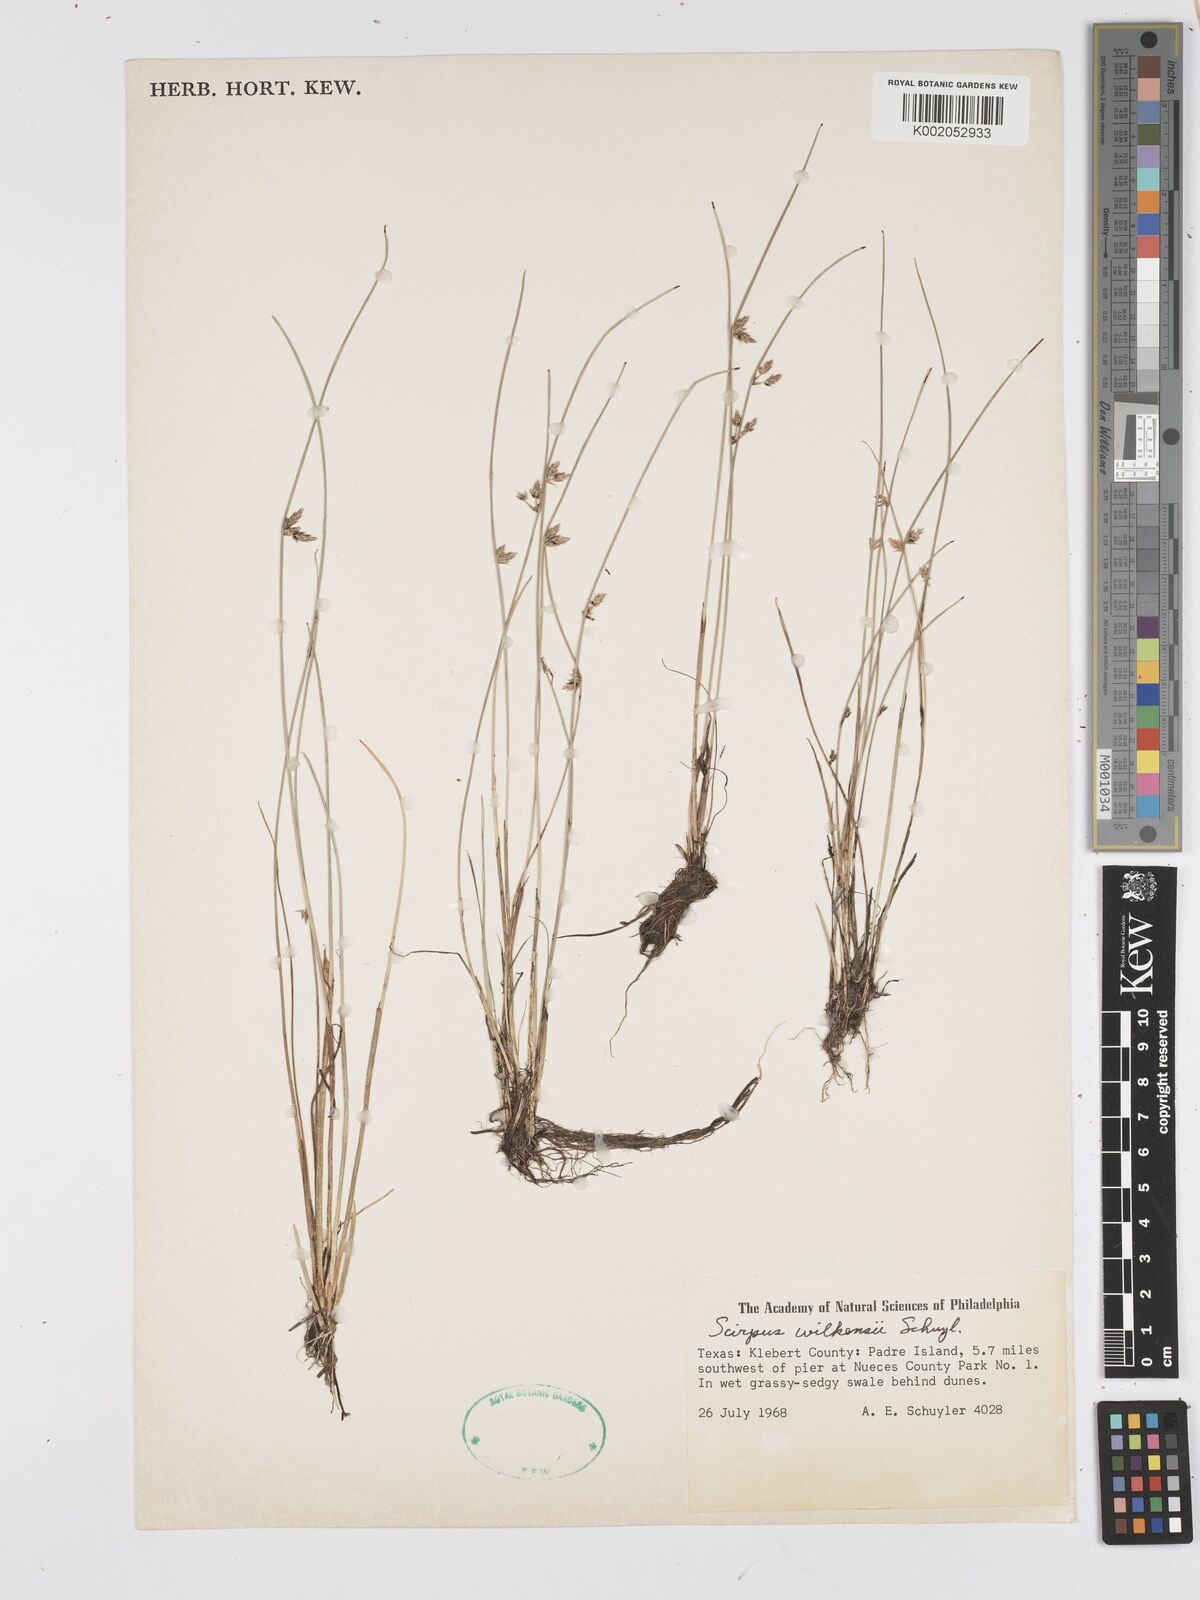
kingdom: Plantae
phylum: Tracheophyta
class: Liliopsida
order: Poales
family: Cyperaceae
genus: Schoenoplectiella
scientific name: Schoenoplectiella erecta
